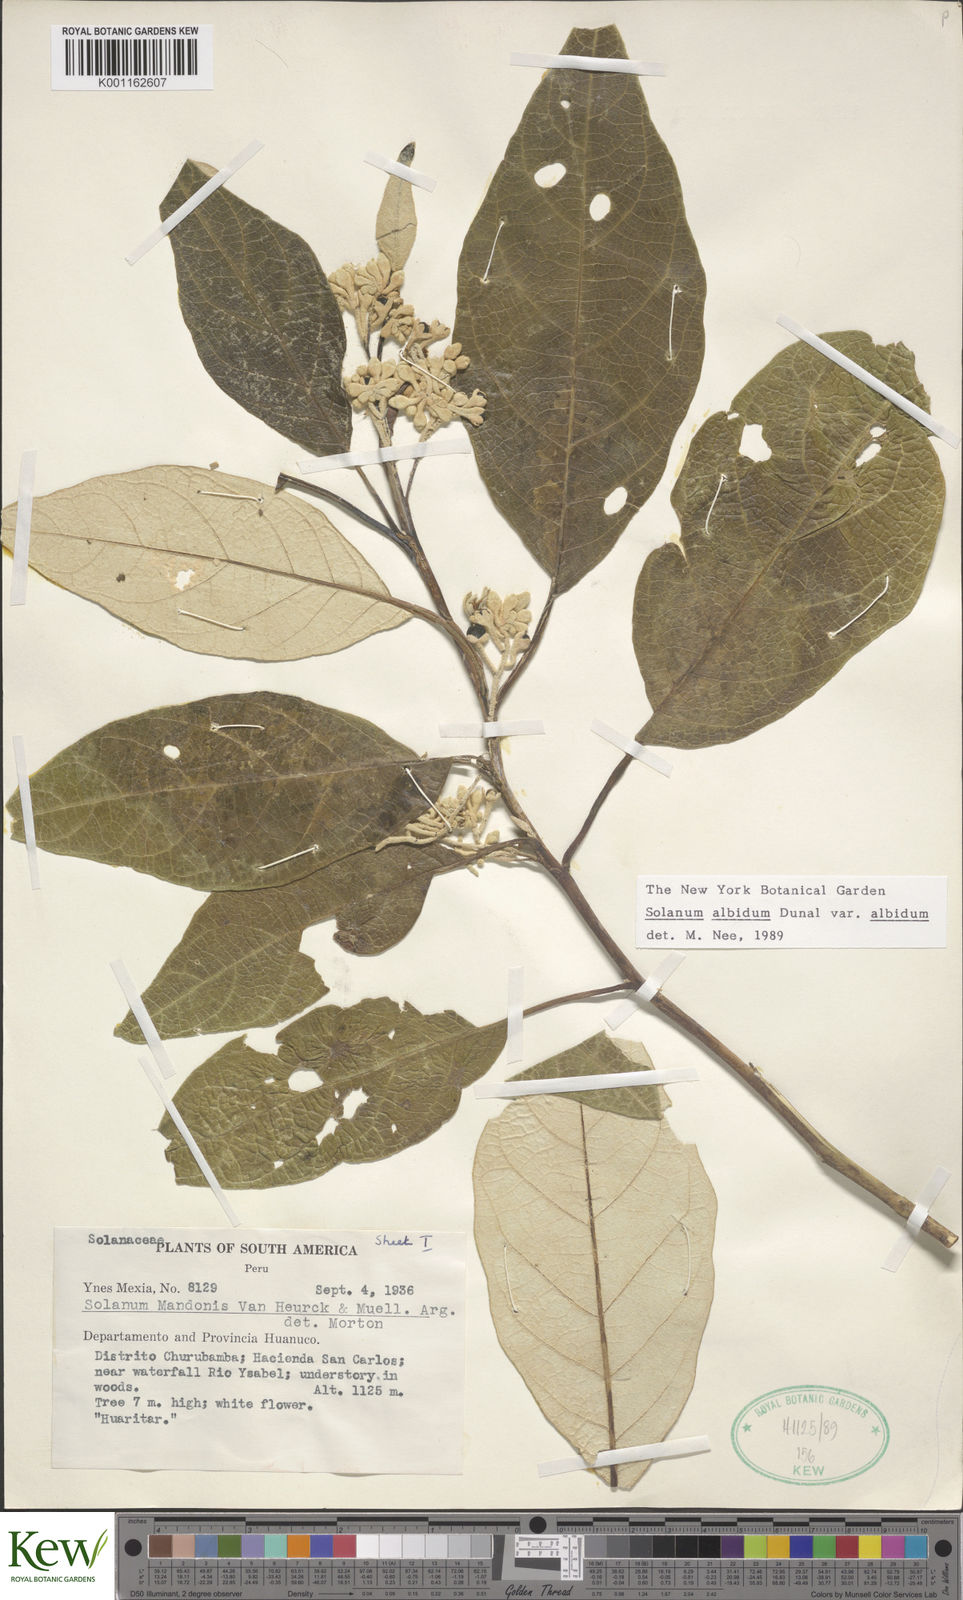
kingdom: Plantae
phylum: Tracheophyta
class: Magnoliopsida
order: Solanales
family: Solanaceae
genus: Solanum
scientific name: Solanum albidum
